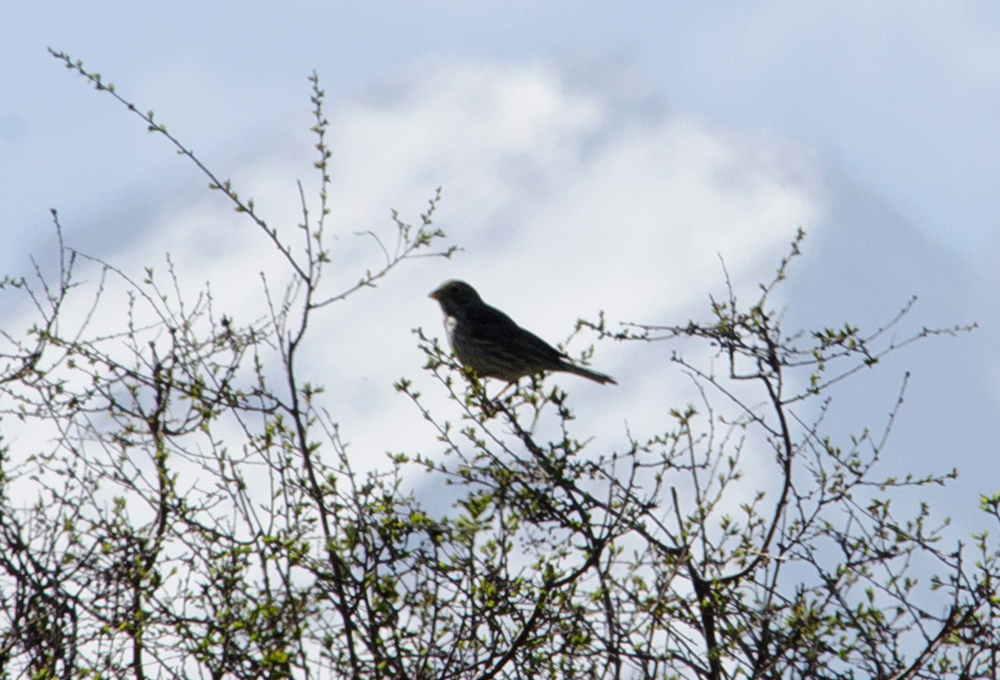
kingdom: Animalia
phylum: Chordata
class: Aves
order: Passeriformes
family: Emberizidae
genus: Emberiza
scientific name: Emberiza calandra
